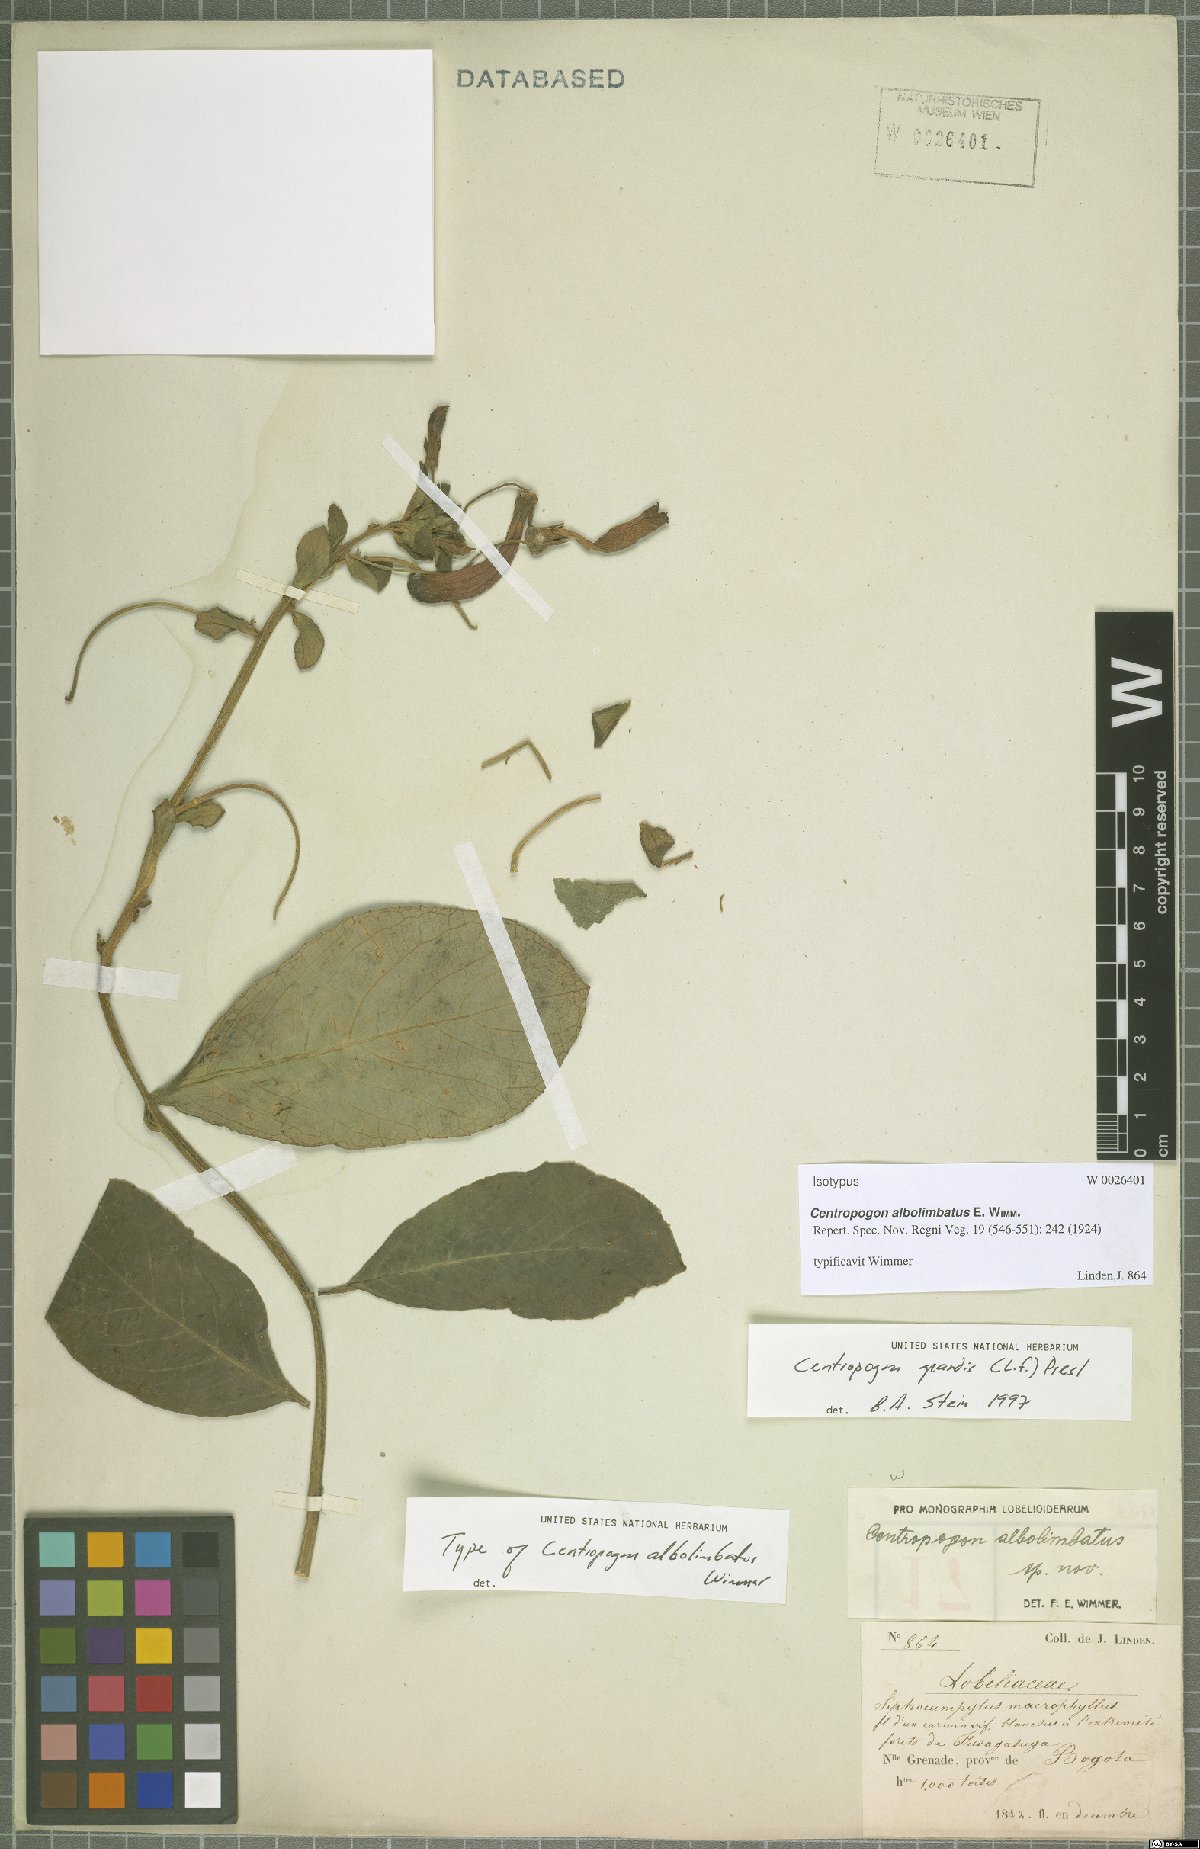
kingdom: Plantae
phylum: Tracheophyta
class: Magnoliopsida
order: Asterales
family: Campanulaceae
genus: Centropogon
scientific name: Centropogon grandis
